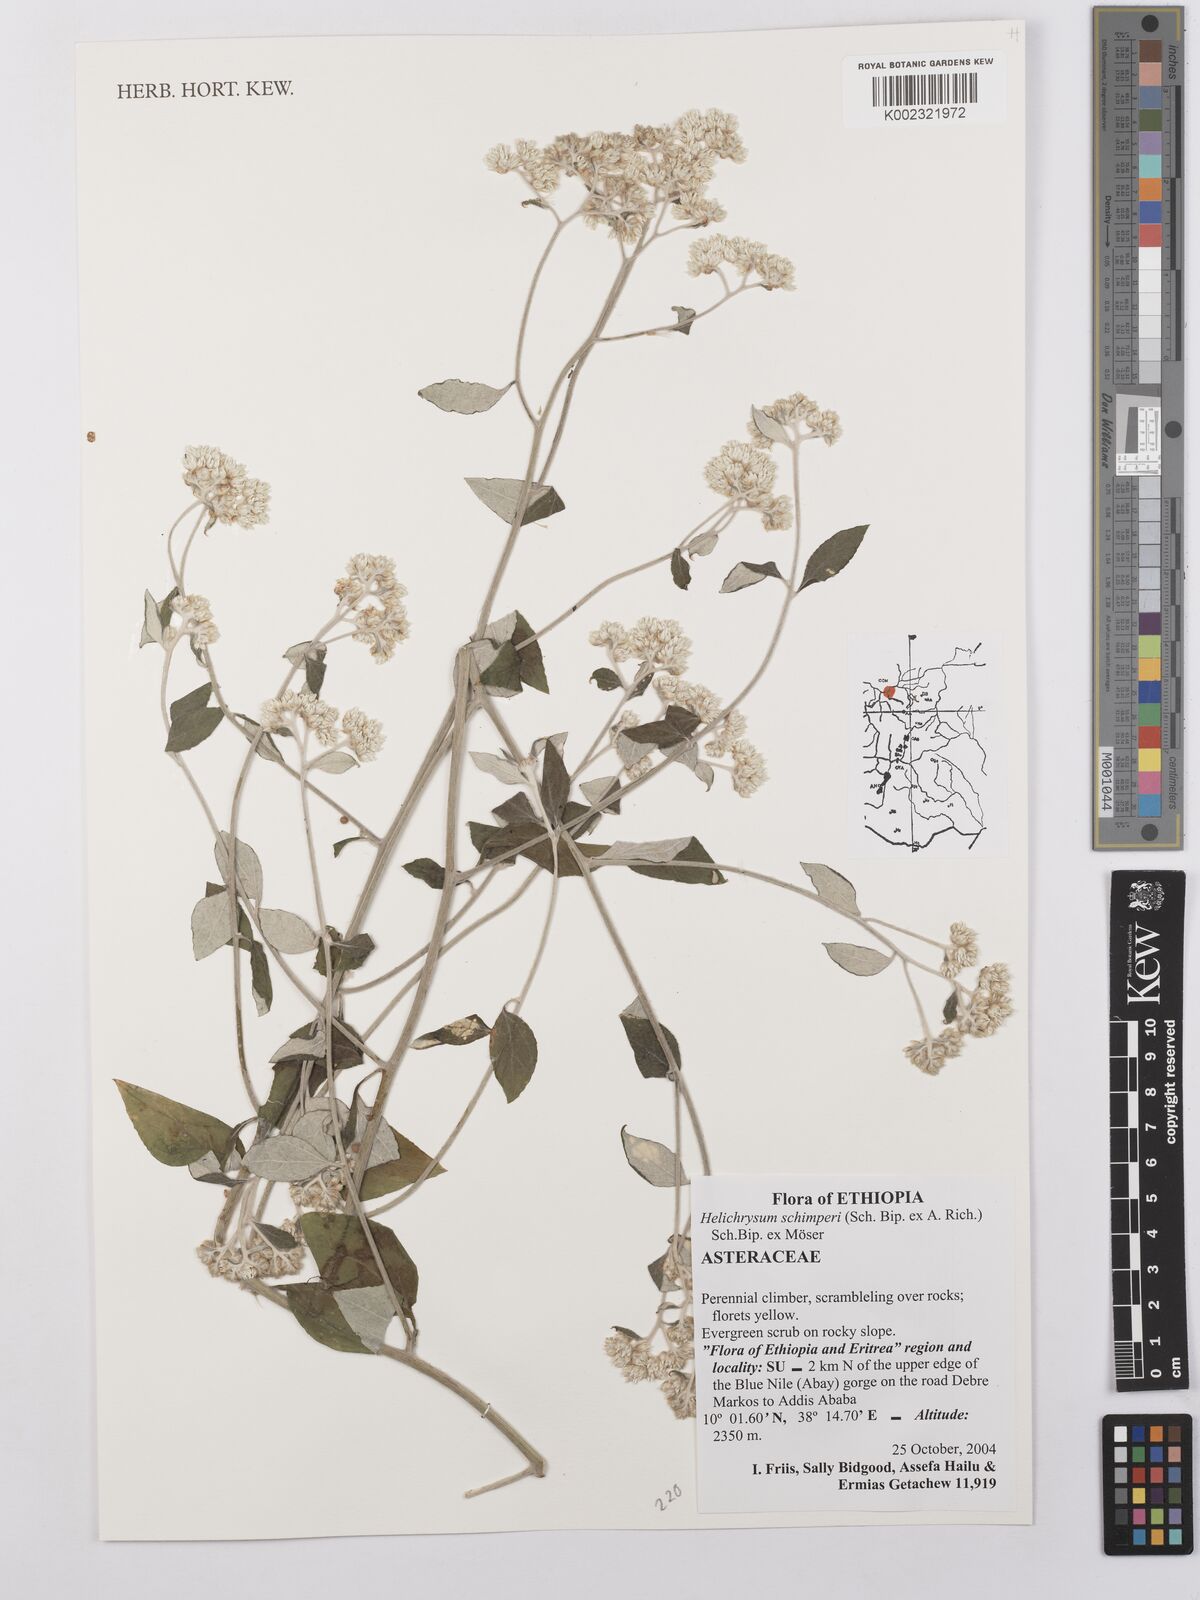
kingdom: Plantae
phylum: Tracheophyta
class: Magnoliopsida
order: Asterales
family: Asteraceae
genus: Helichrysum
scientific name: Helichrysum schimperi
